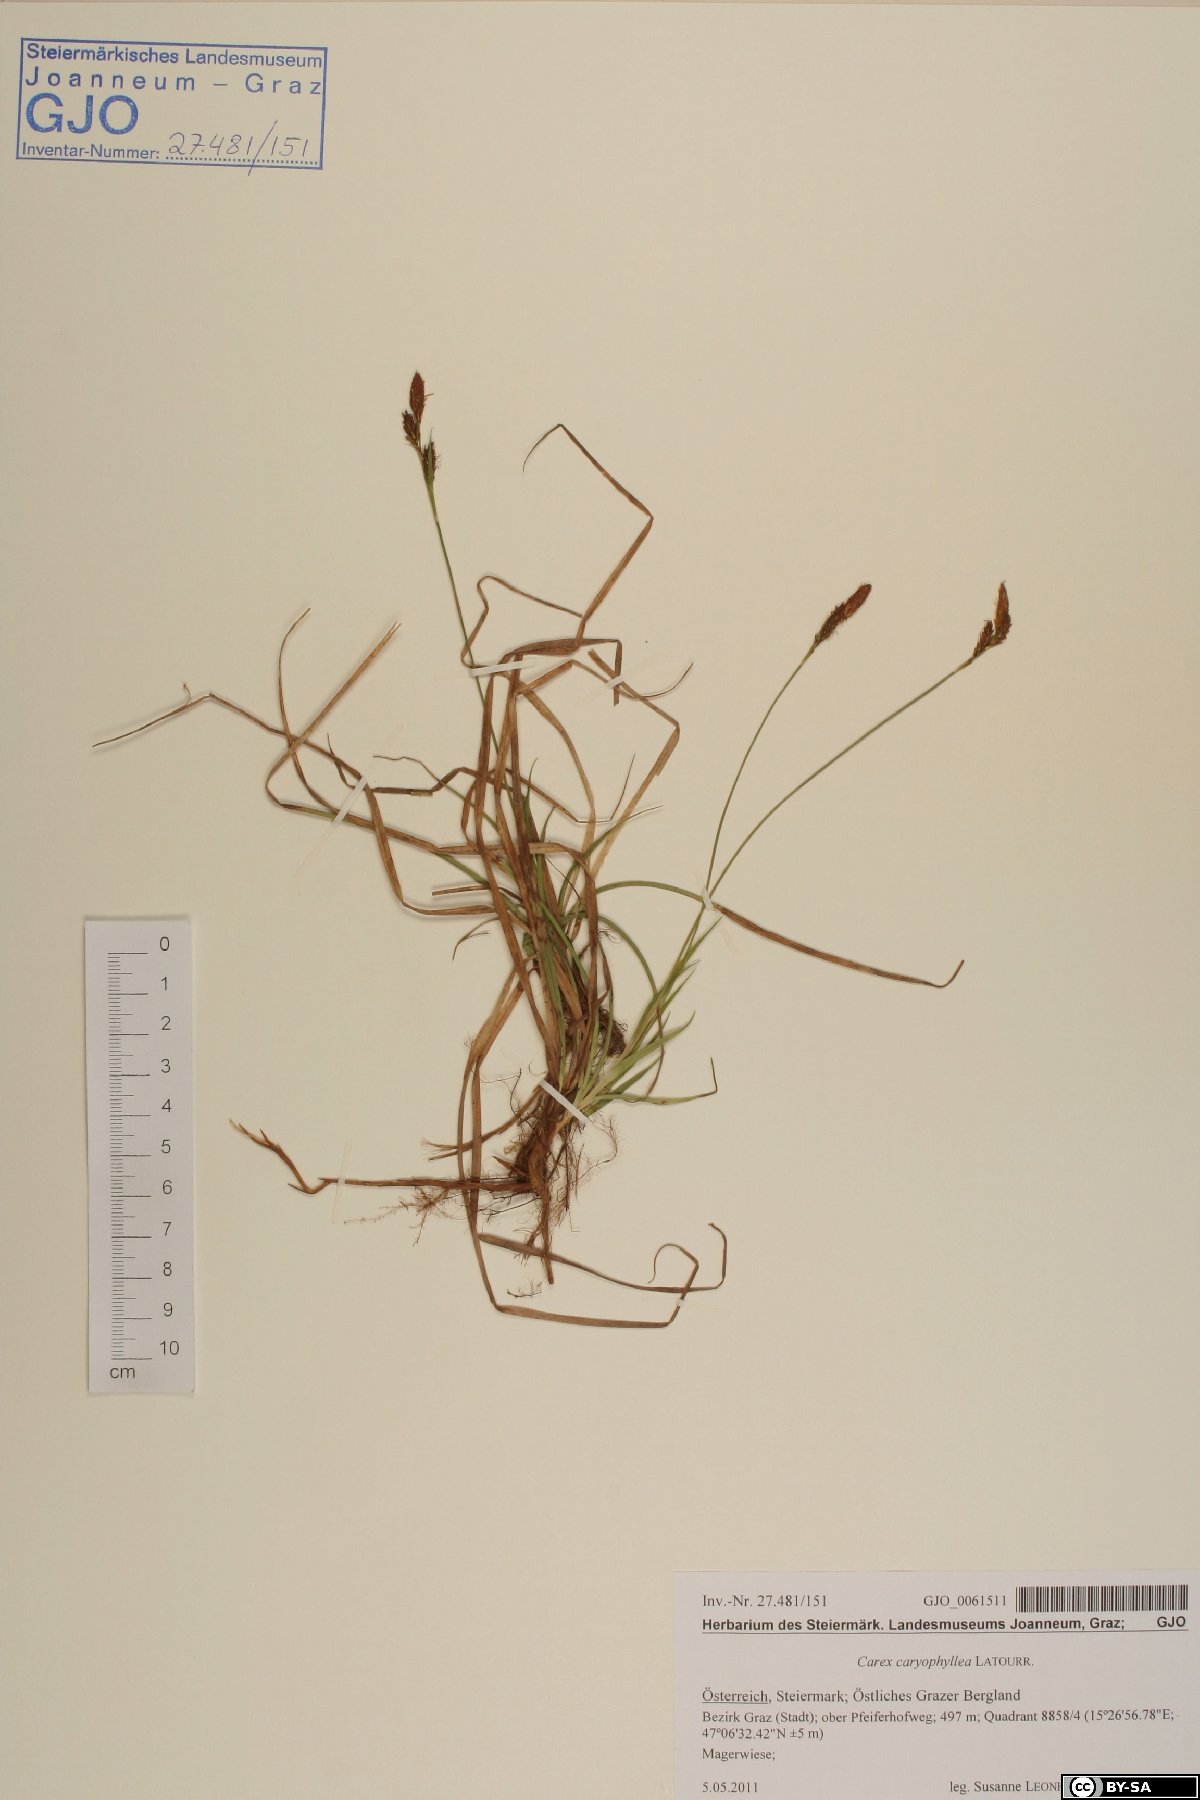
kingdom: Plantae
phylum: Tracheophyta
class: Liliopsida
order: Poales
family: Cyperaceae
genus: Carex
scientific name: Carex caryophyllea
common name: Spring sedge
